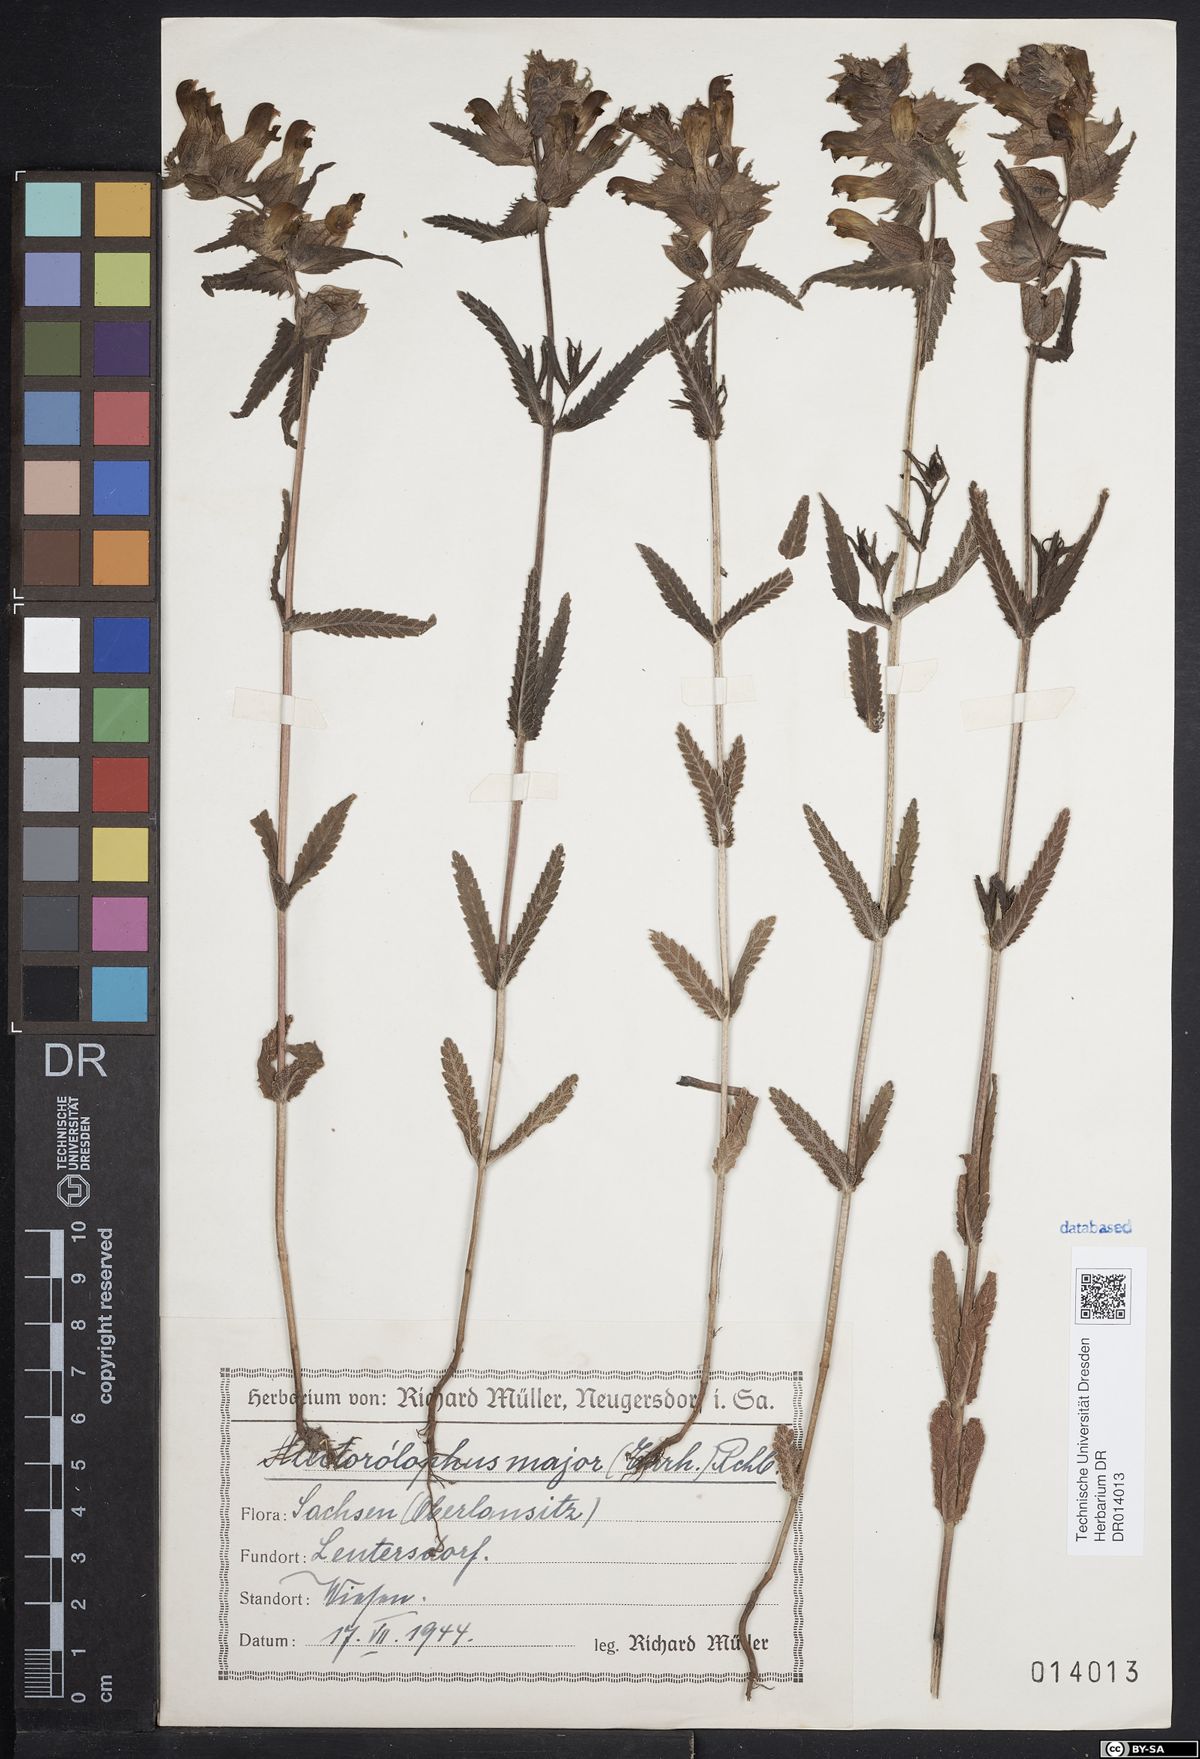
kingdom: Plantae
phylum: Tracheophyta
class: Magnoliopsida
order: Lamiales
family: Orobanchaceae
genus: Rhinanthus
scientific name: Rhinanthus serotinus
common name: Late-flowering yellow rattle
